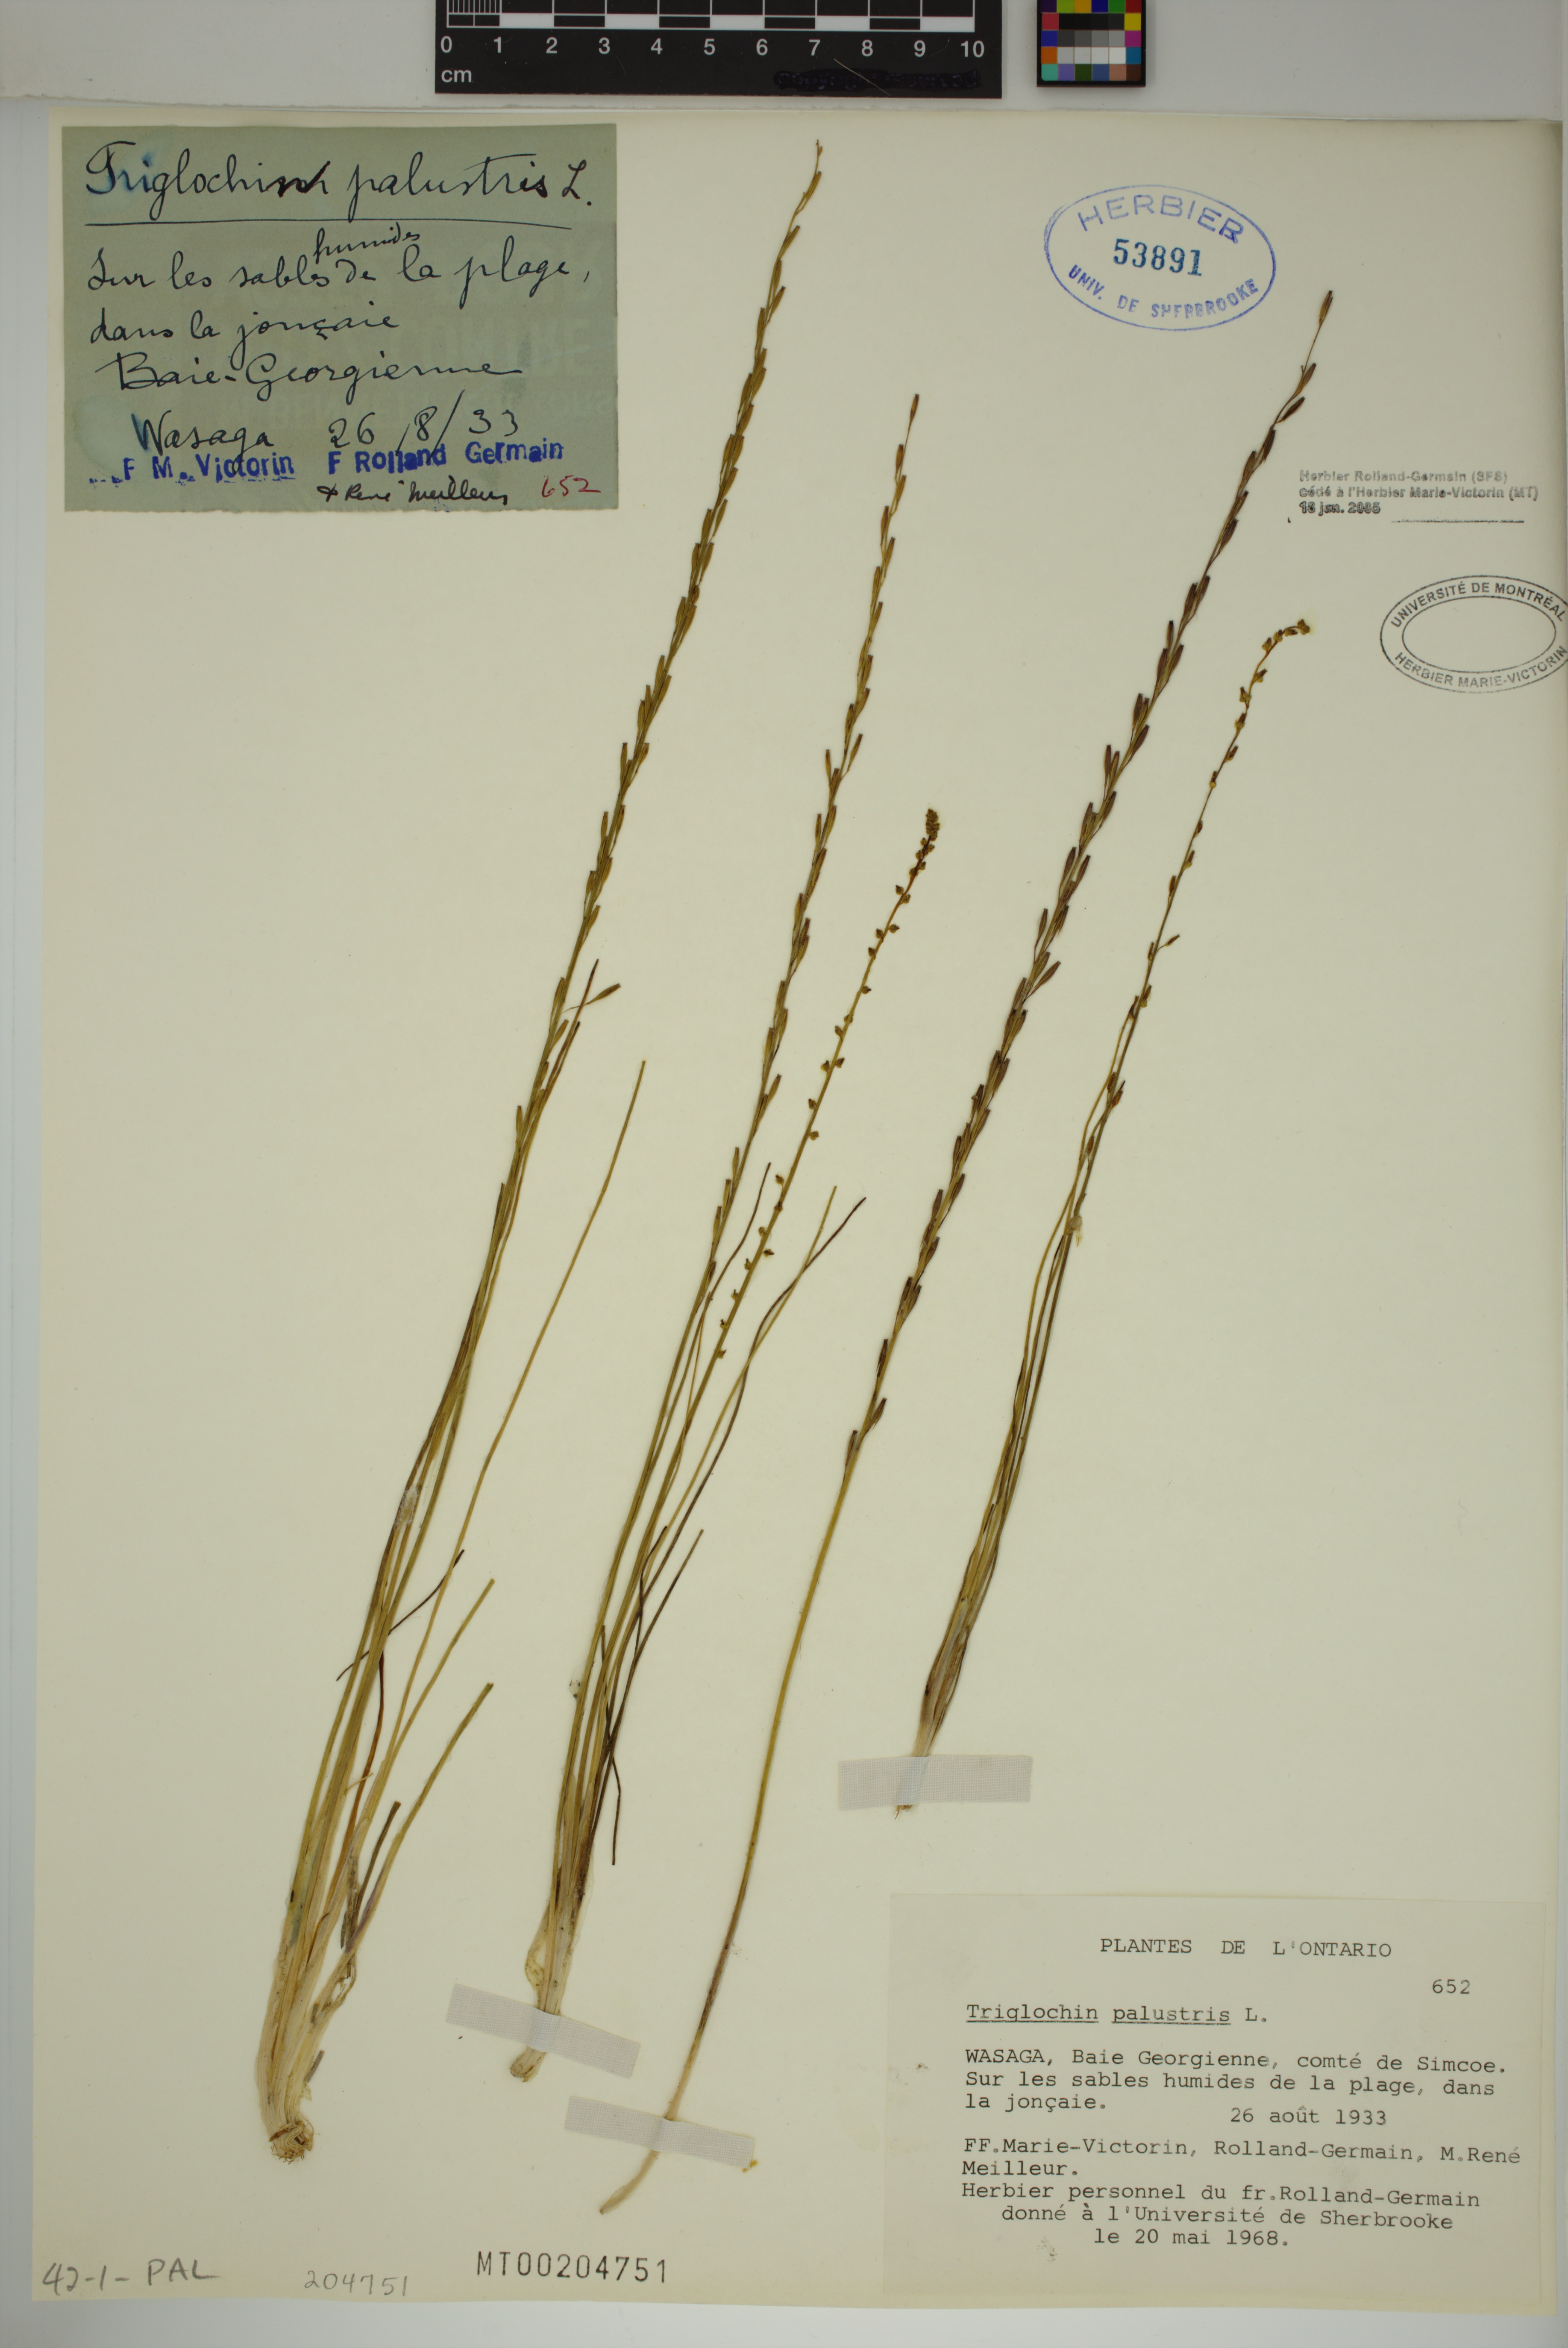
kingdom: Plantae
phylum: Tracheophyta
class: Liliopsida
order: Alismatales
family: Juncaginaceae
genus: Triglochin
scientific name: Triglochin palustris
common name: Marsh arrowgrass
